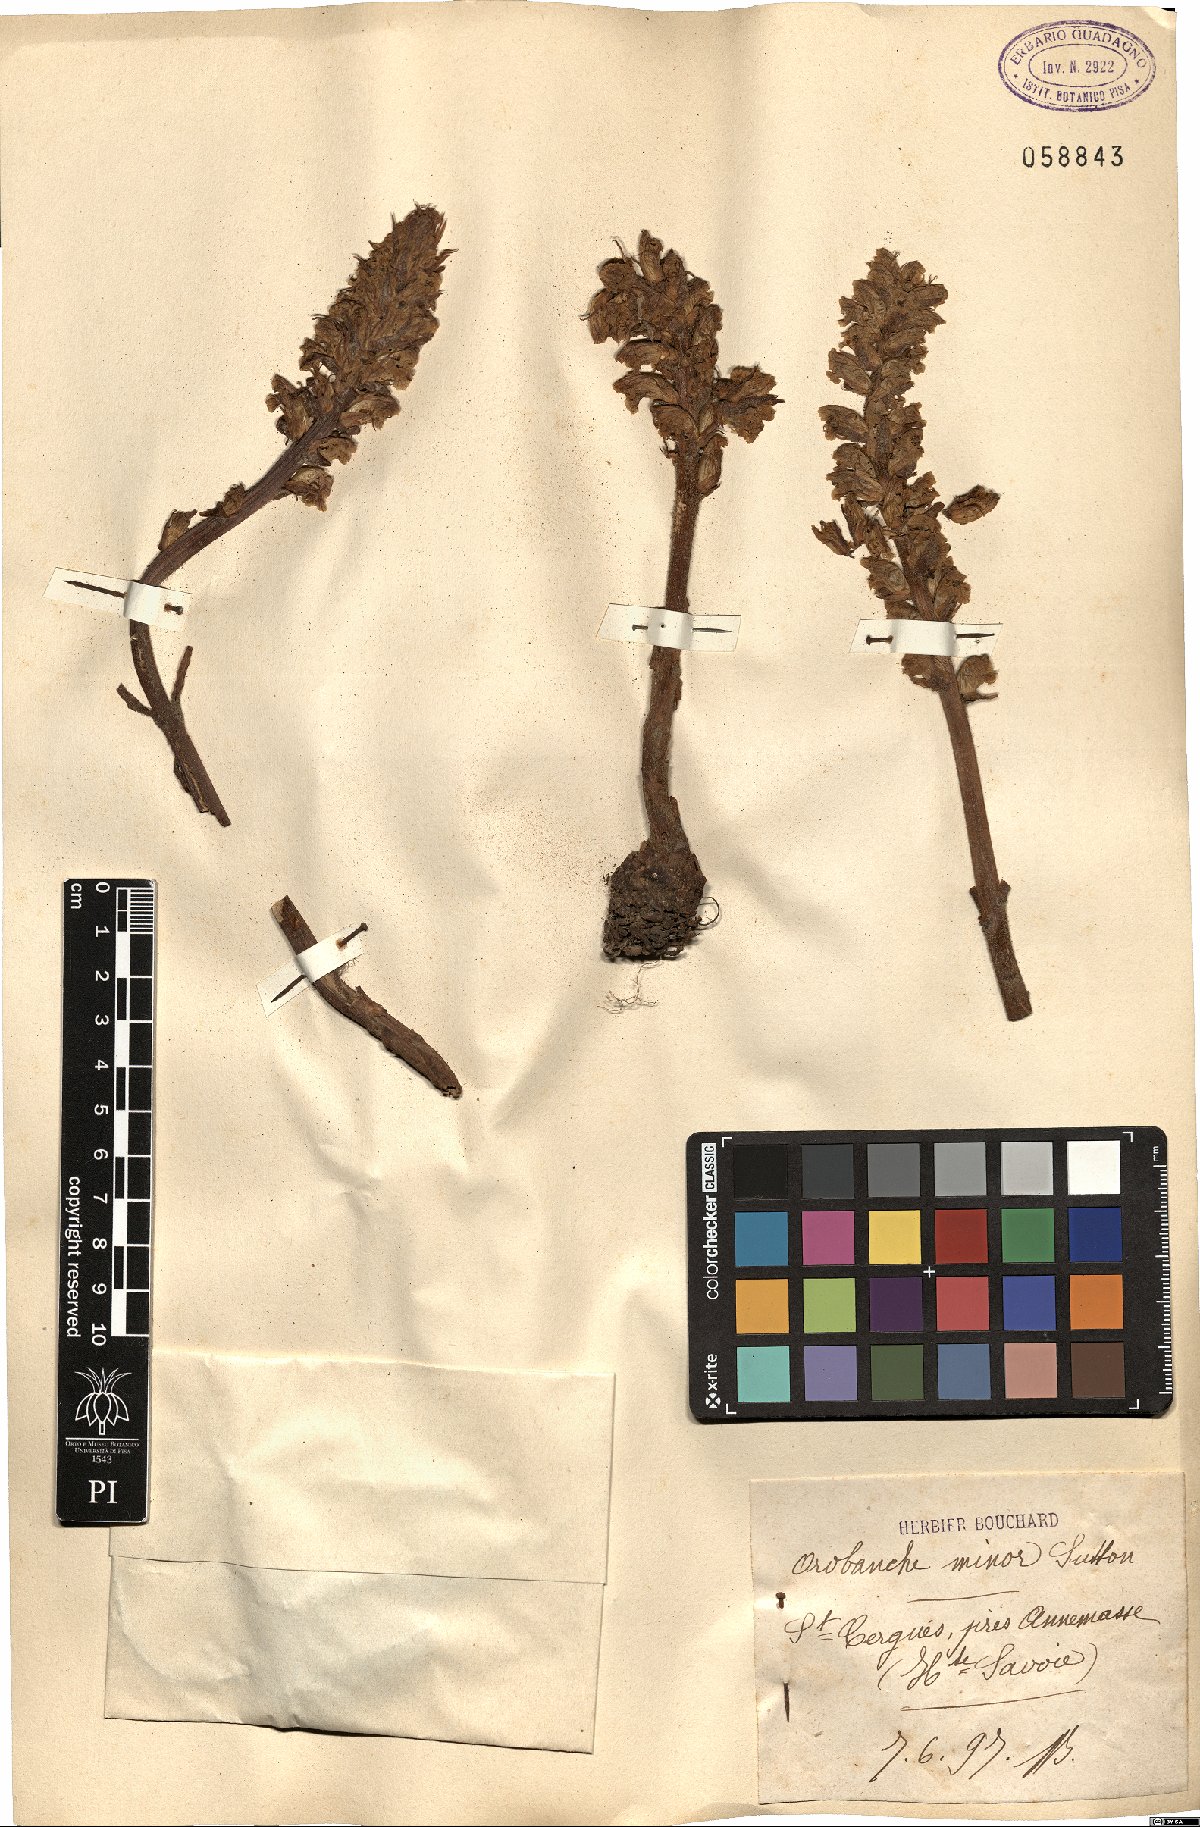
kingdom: Plantae
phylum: Tracheophyta
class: Magnoliopsida
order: Lamiales
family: Orobanchaceae
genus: Orobanche
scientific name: Orobanche minor
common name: Common broomrape
